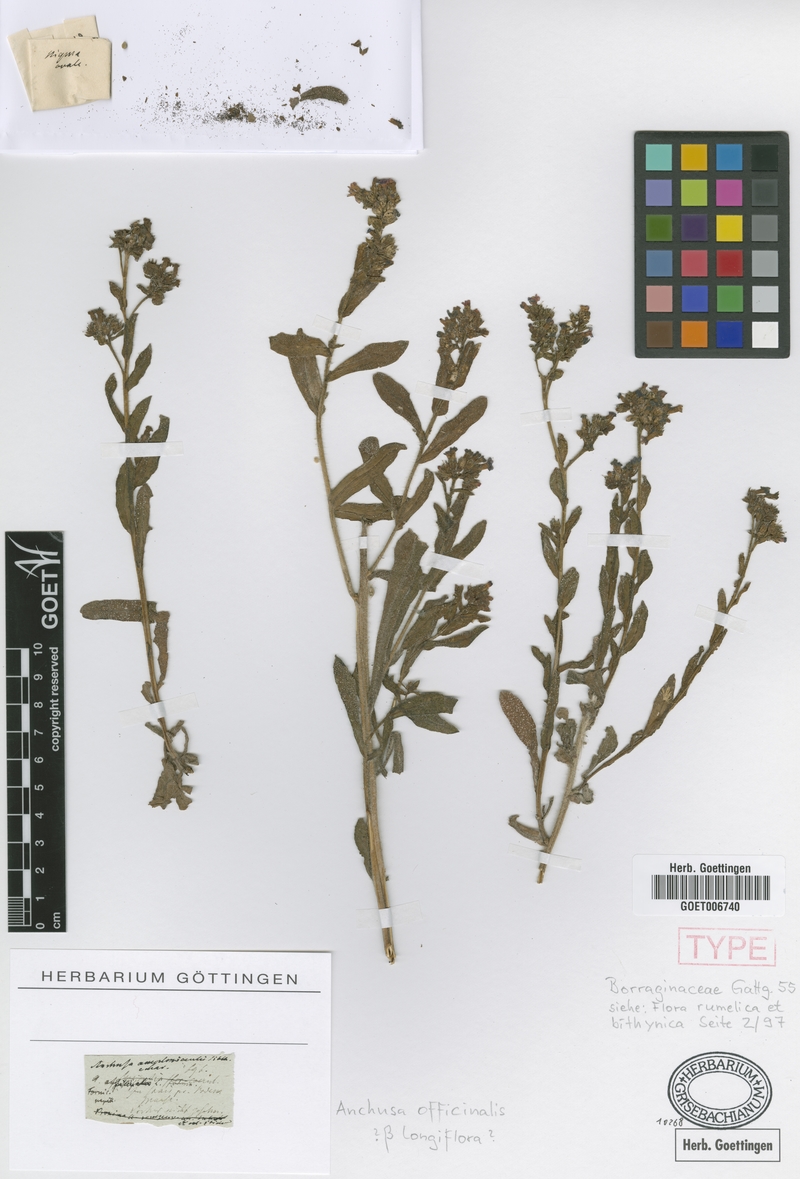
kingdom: Plantae
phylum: Tracheophyta
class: Magnoliopsida
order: Boraginales
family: Boraginaceae
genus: Anchusa
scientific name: Anchusa officinalis
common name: Alkanet
